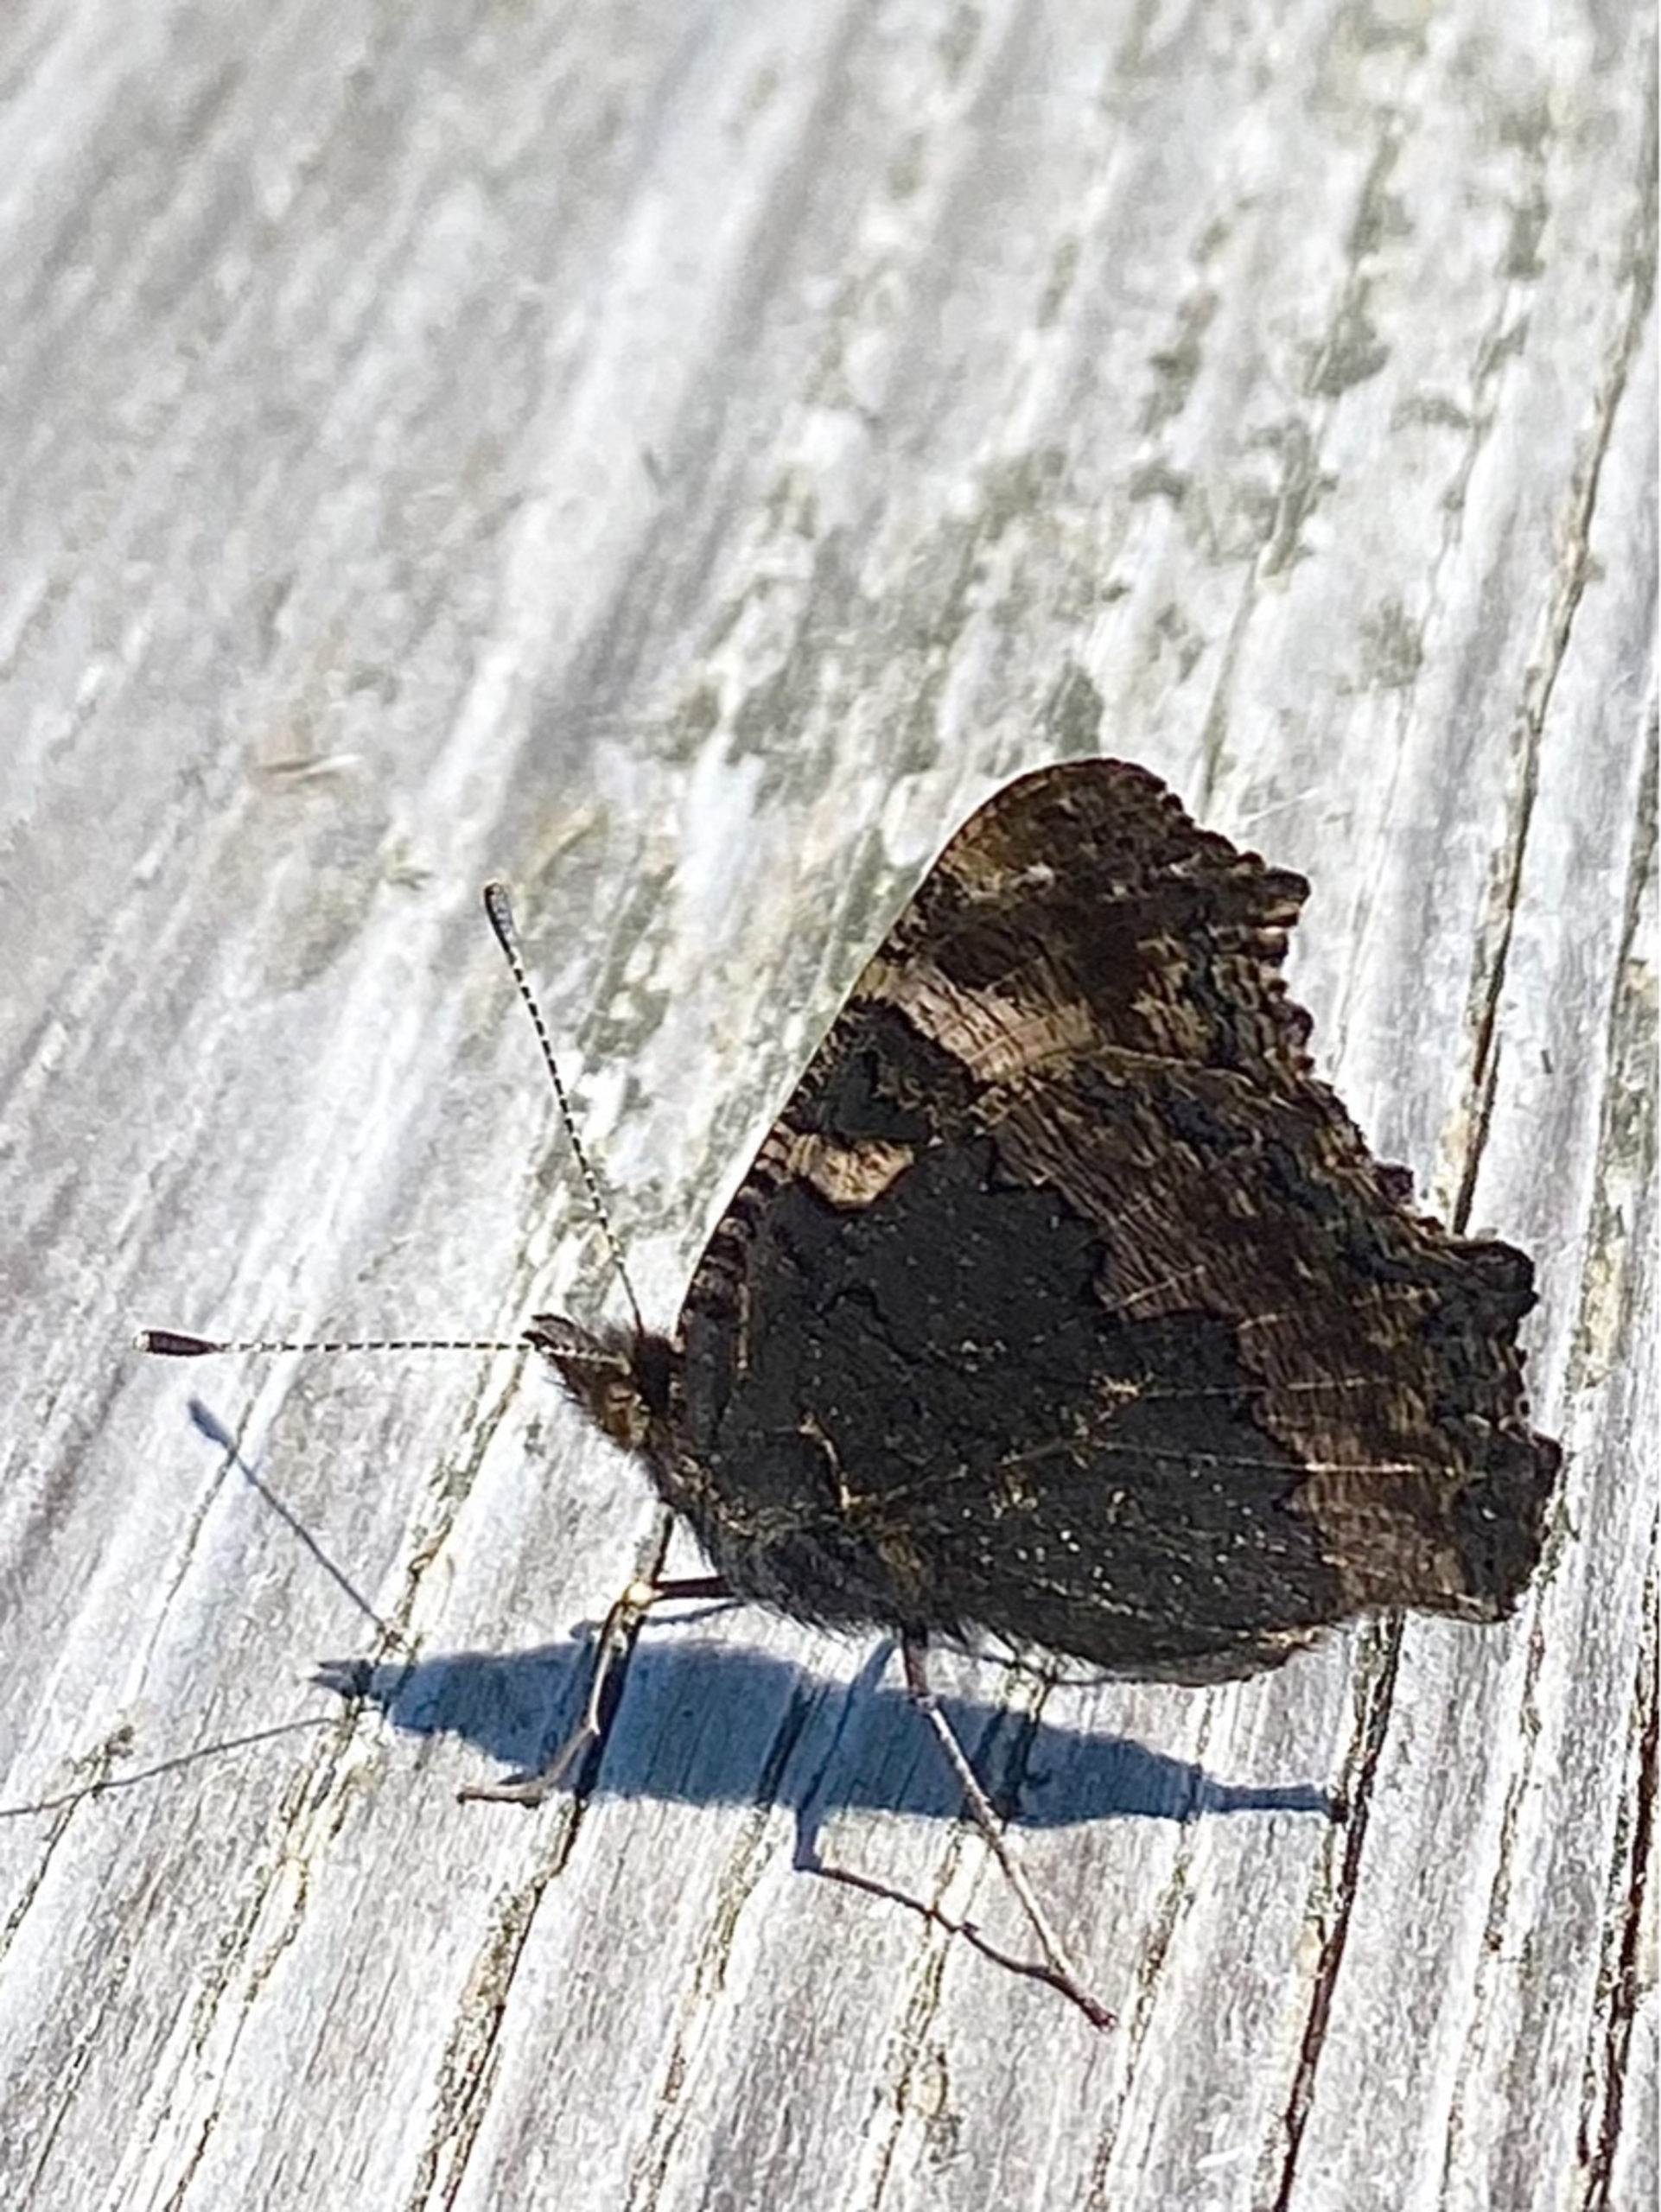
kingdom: Animalia
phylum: Arthropoda
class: Insecta
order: Lepidoptera
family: Nymphalidae
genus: Aglais
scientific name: Aglais urticae
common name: Nældens takvinge
